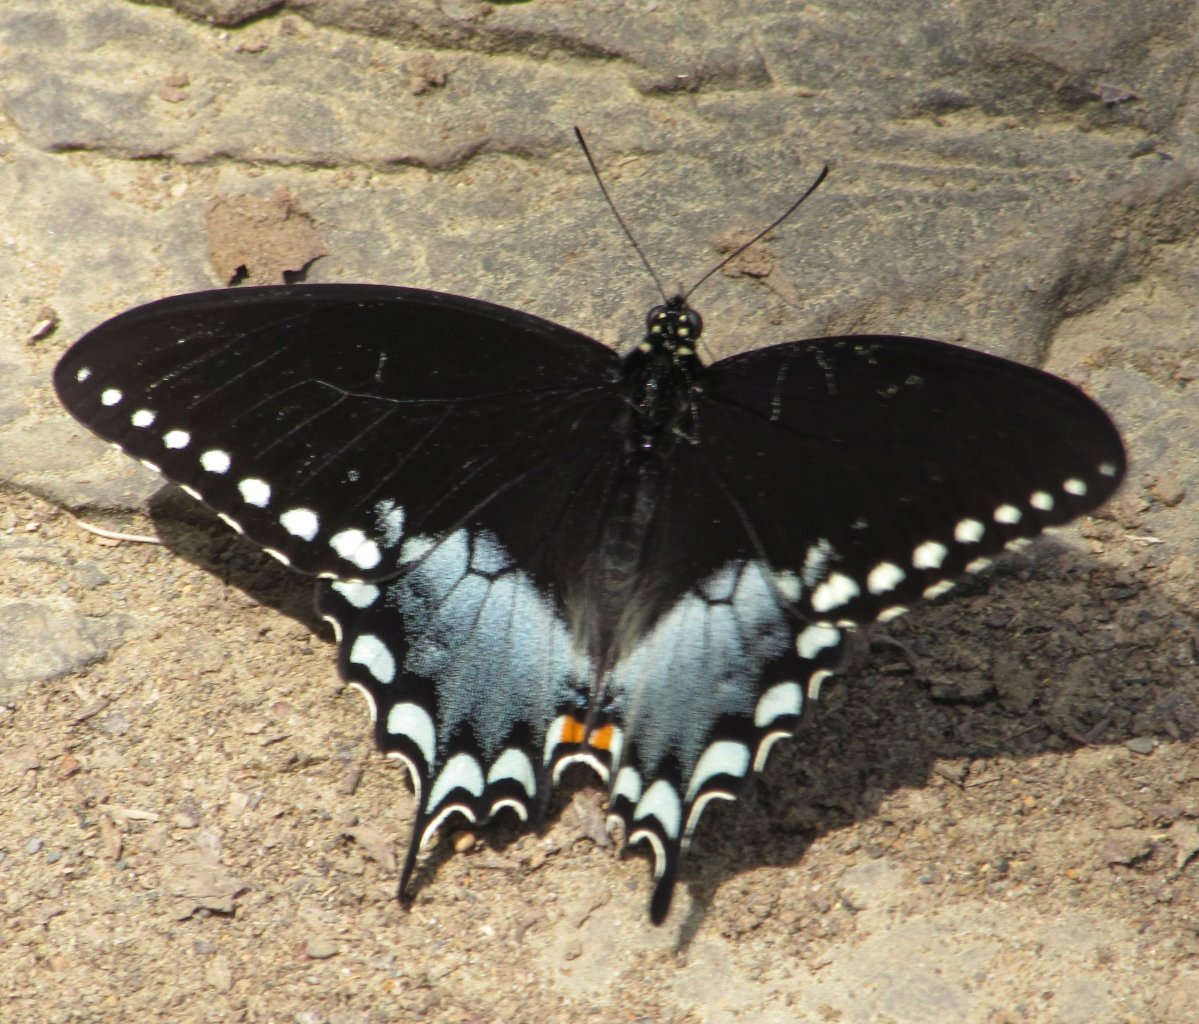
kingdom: Animalia
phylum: Arthropoda
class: Insecta
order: Lepidoptera
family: Papilionidae
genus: Pterourus
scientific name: Pterourus troilus
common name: Spicebush Swallowtail
